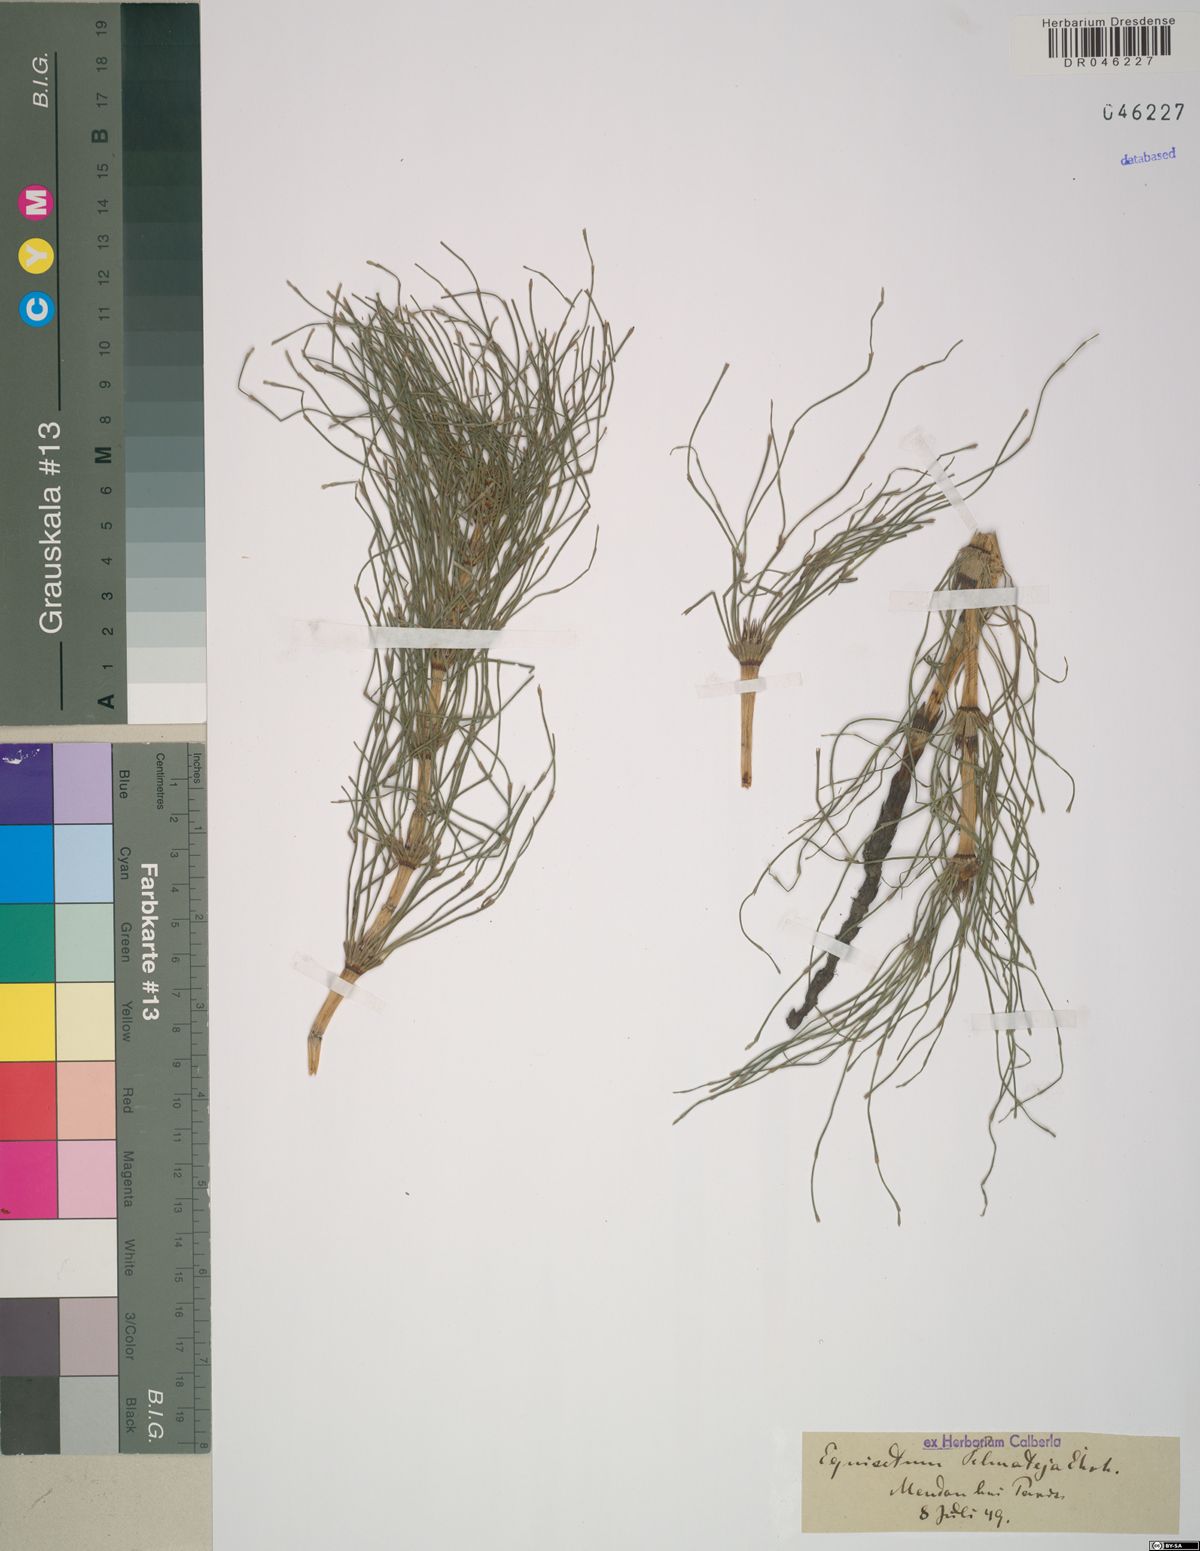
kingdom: Plantae
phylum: Tracheophyta
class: Polypodiopsida
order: Equisetales
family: Equisetaceae
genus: Equisetum
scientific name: Equisetum telmateia
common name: Great horsetail
